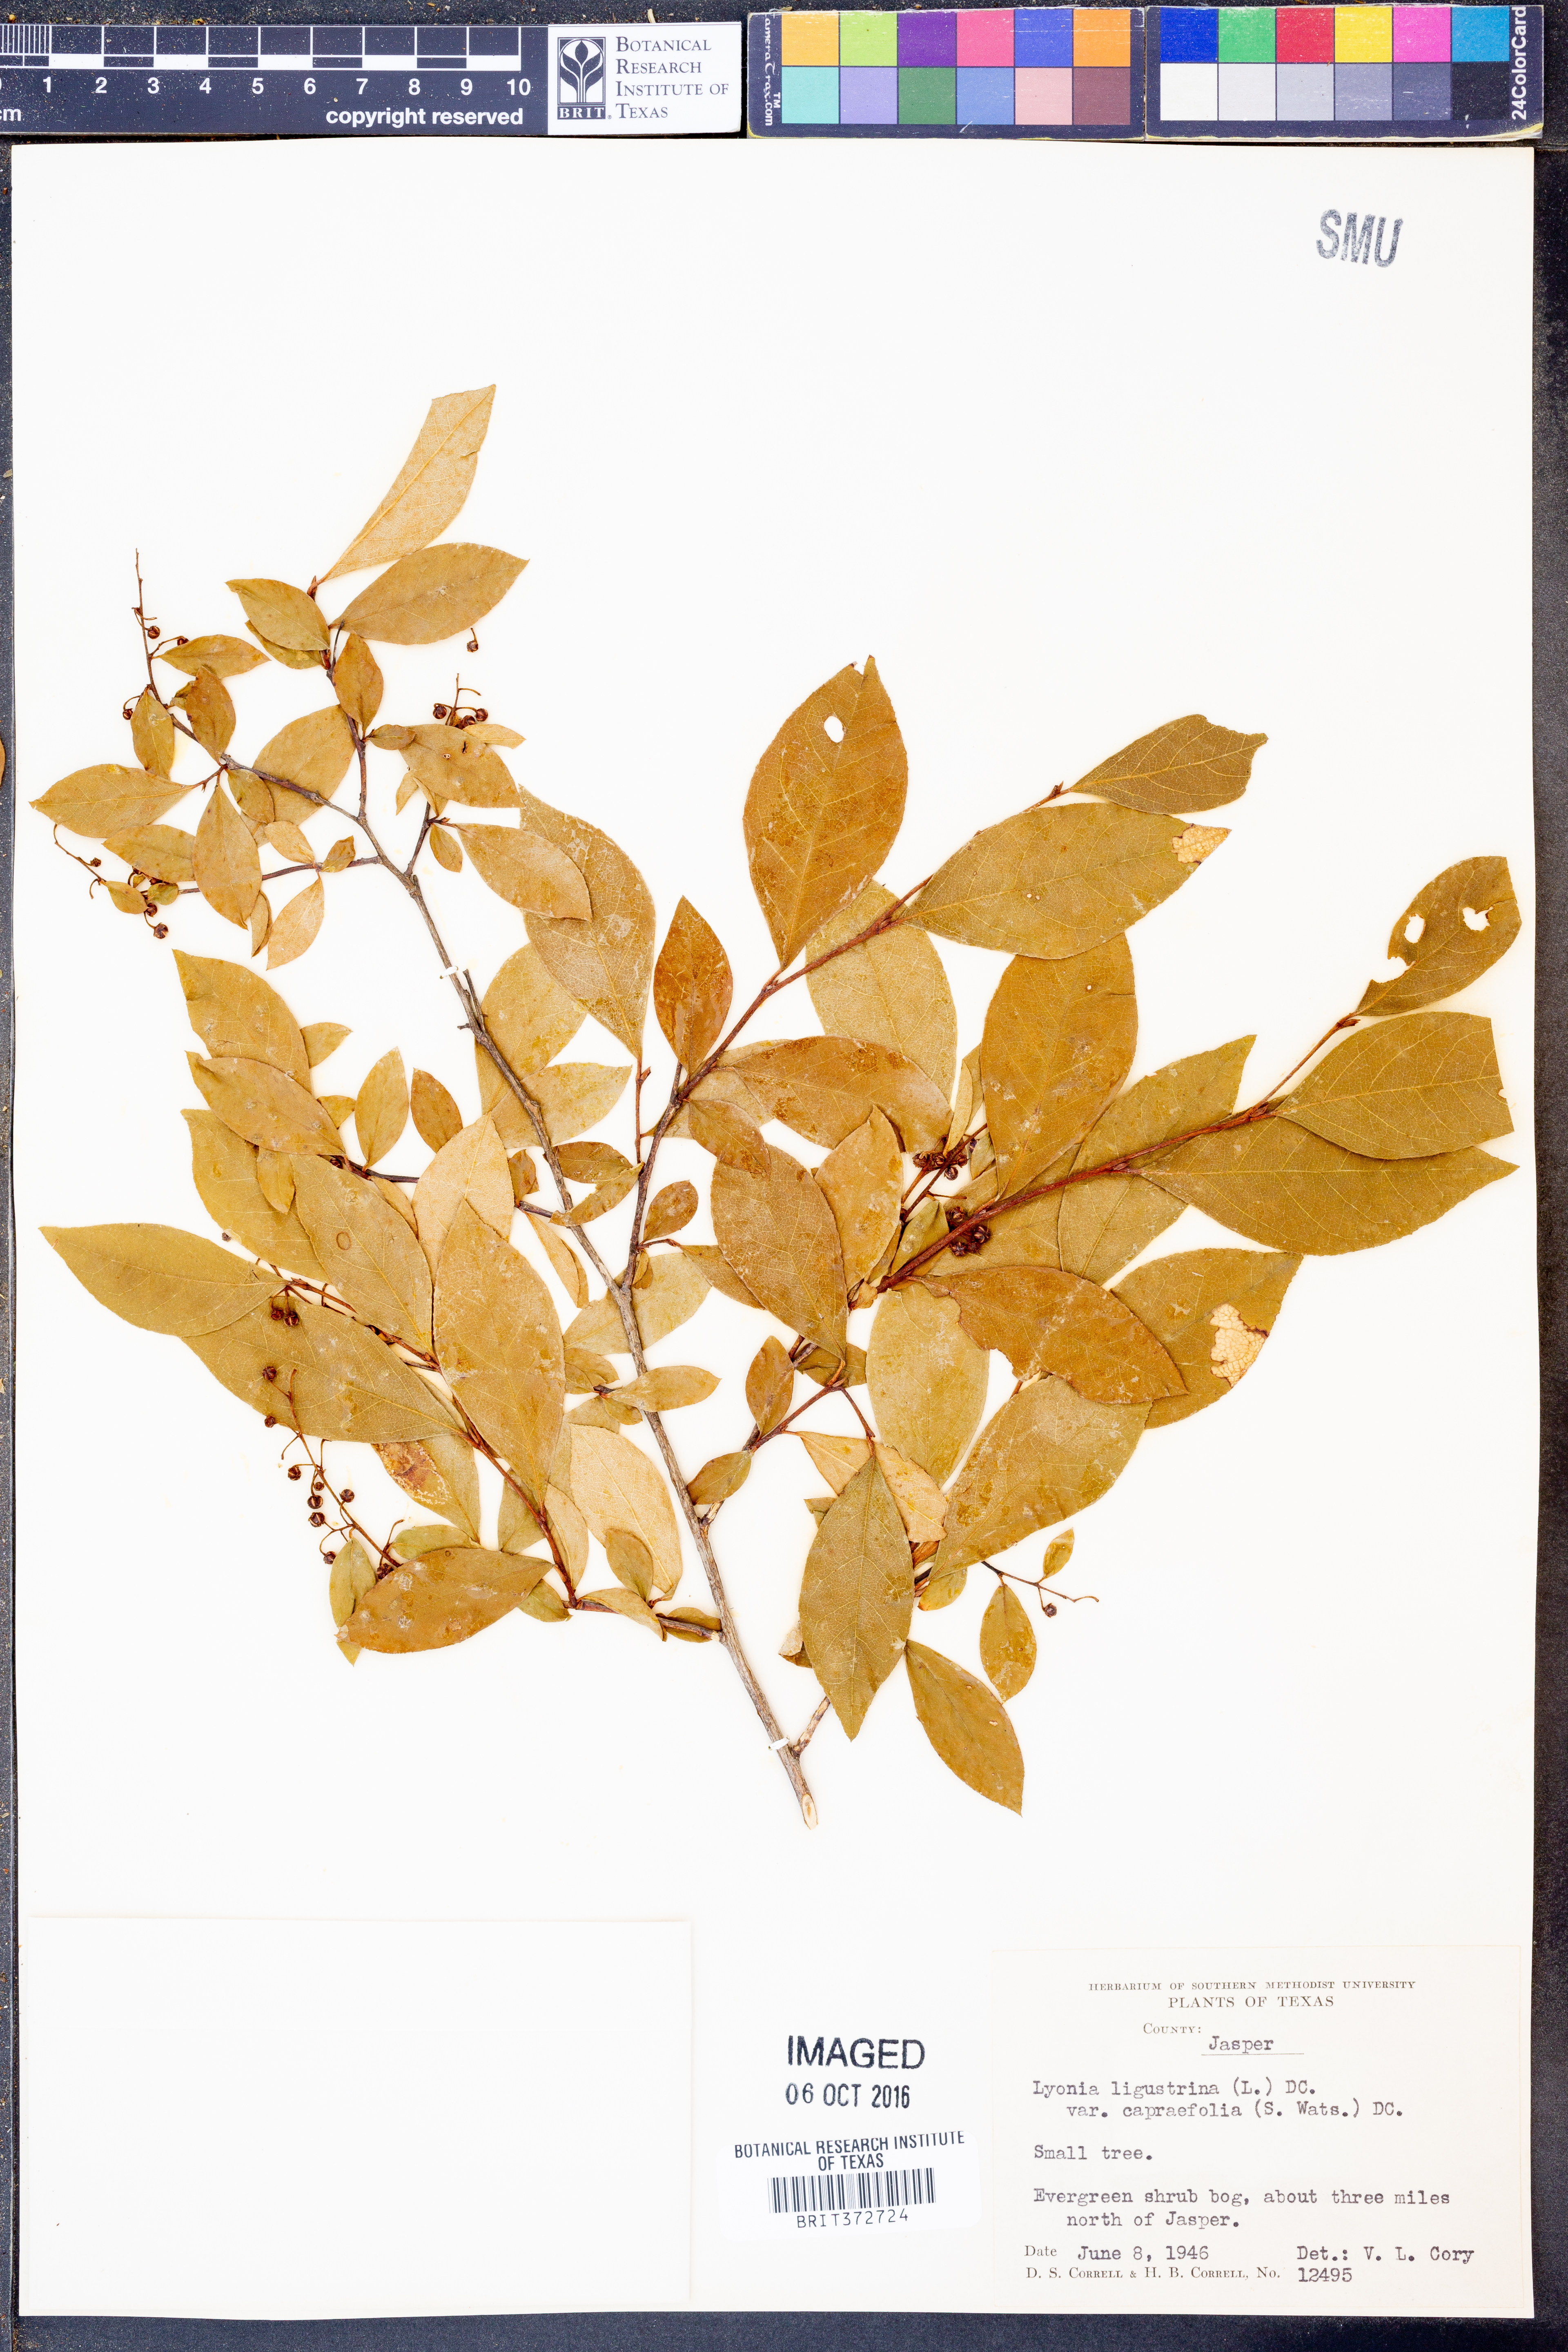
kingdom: Plantae
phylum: Tracheophyta
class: Magnoliopsida
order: Ericales
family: Ericaceae
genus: Lyonia
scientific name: Lyonia ligustrina
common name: Maleberry
